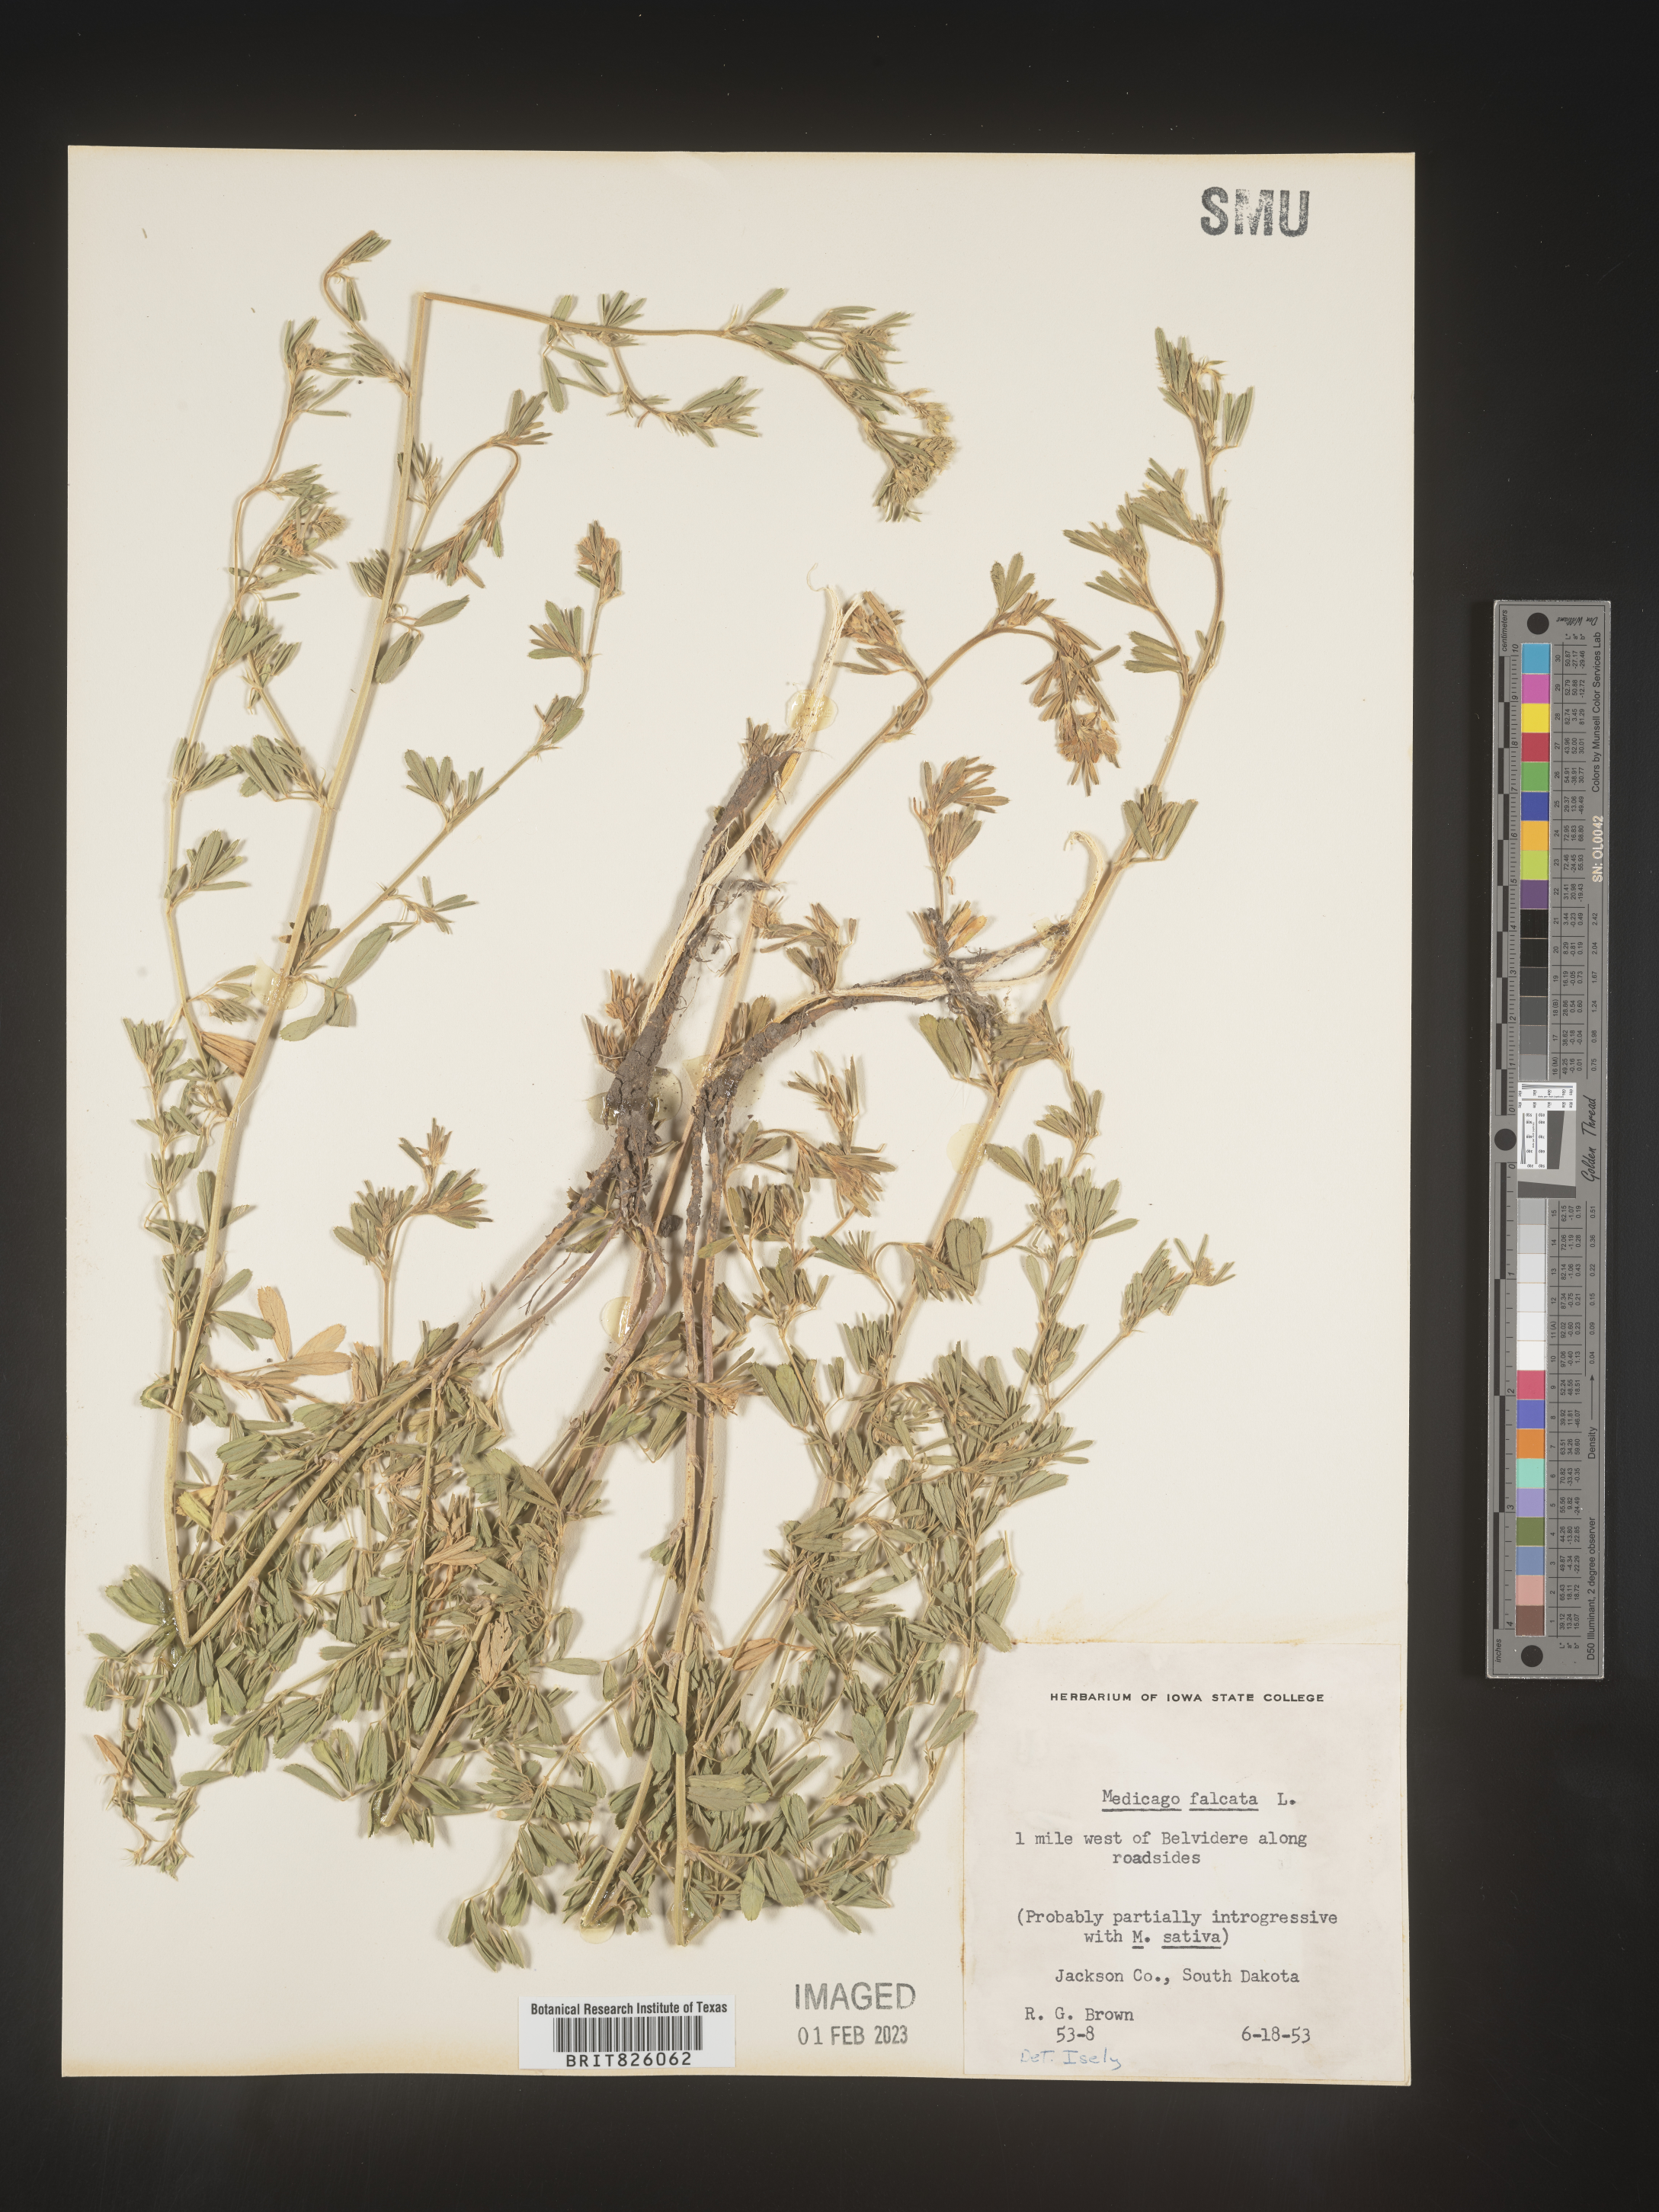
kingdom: Plantae
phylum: Tracheophyta
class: Magnoliopsida
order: Fabales
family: Fabaceae
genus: Medicago
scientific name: Medicago sativa
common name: Alfalfa
